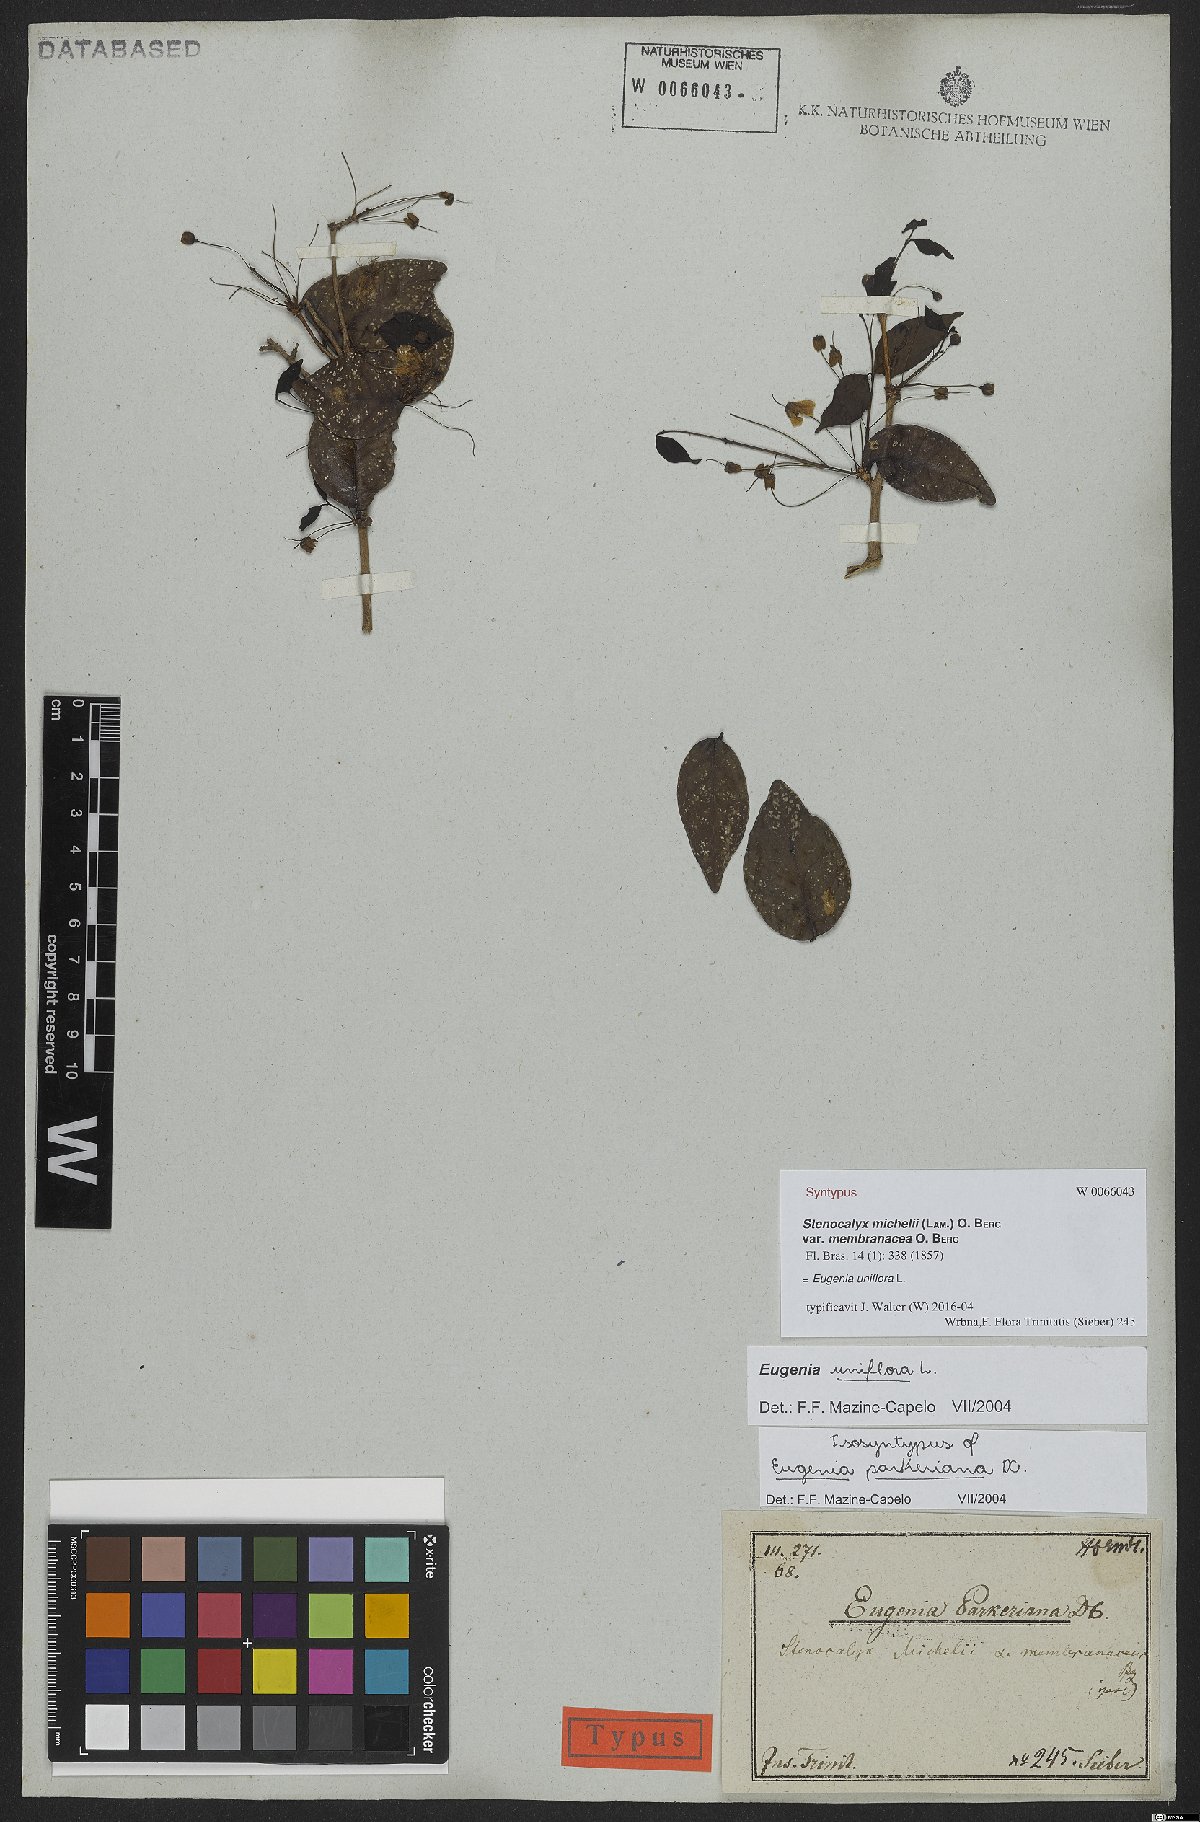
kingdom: Plantae
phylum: Tracheophyta
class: Magnoliopsida
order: Myrtales
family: Myrtaceae
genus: Eugenia
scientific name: Eugenia uniflora
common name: Surinam cherry
